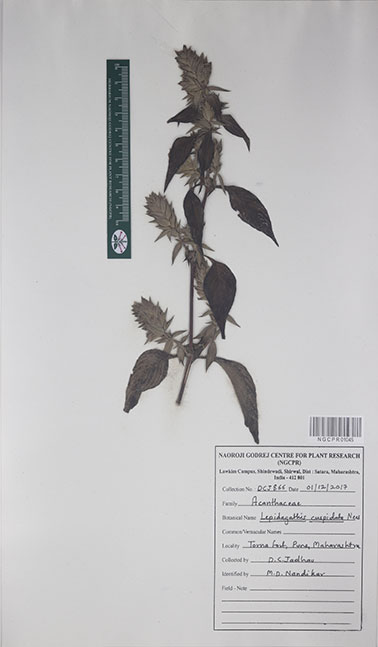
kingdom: Plantae
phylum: Tracheophyta
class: Magnoliopsida
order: Lamiales
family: Acanthaceae
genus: Lepidagathis
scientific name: Lepidagathis cuspidata
